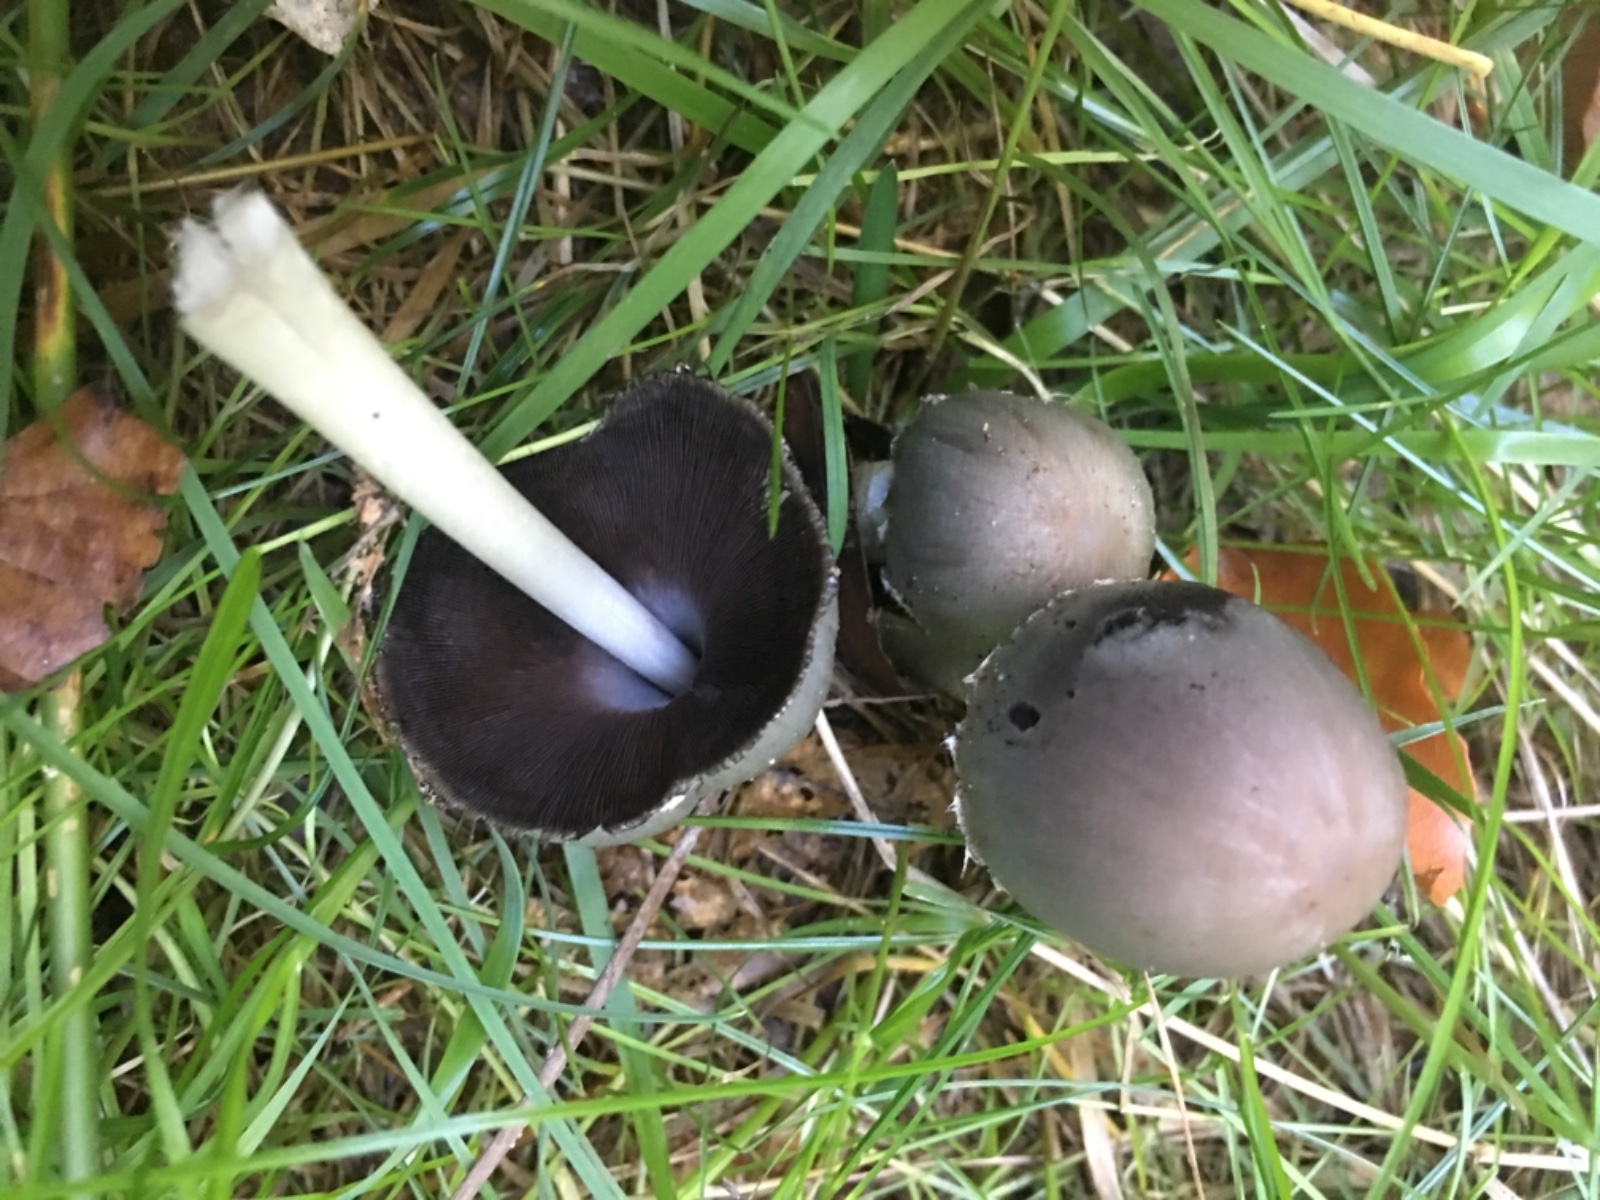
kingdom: Fungi
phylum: Basidiomycota
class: Agaricomycetes
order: Agaricales
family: Psathyrellaceae
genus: Coprinopsis
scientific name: Coprinopsis atramentaria
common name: almindelig blækhat
